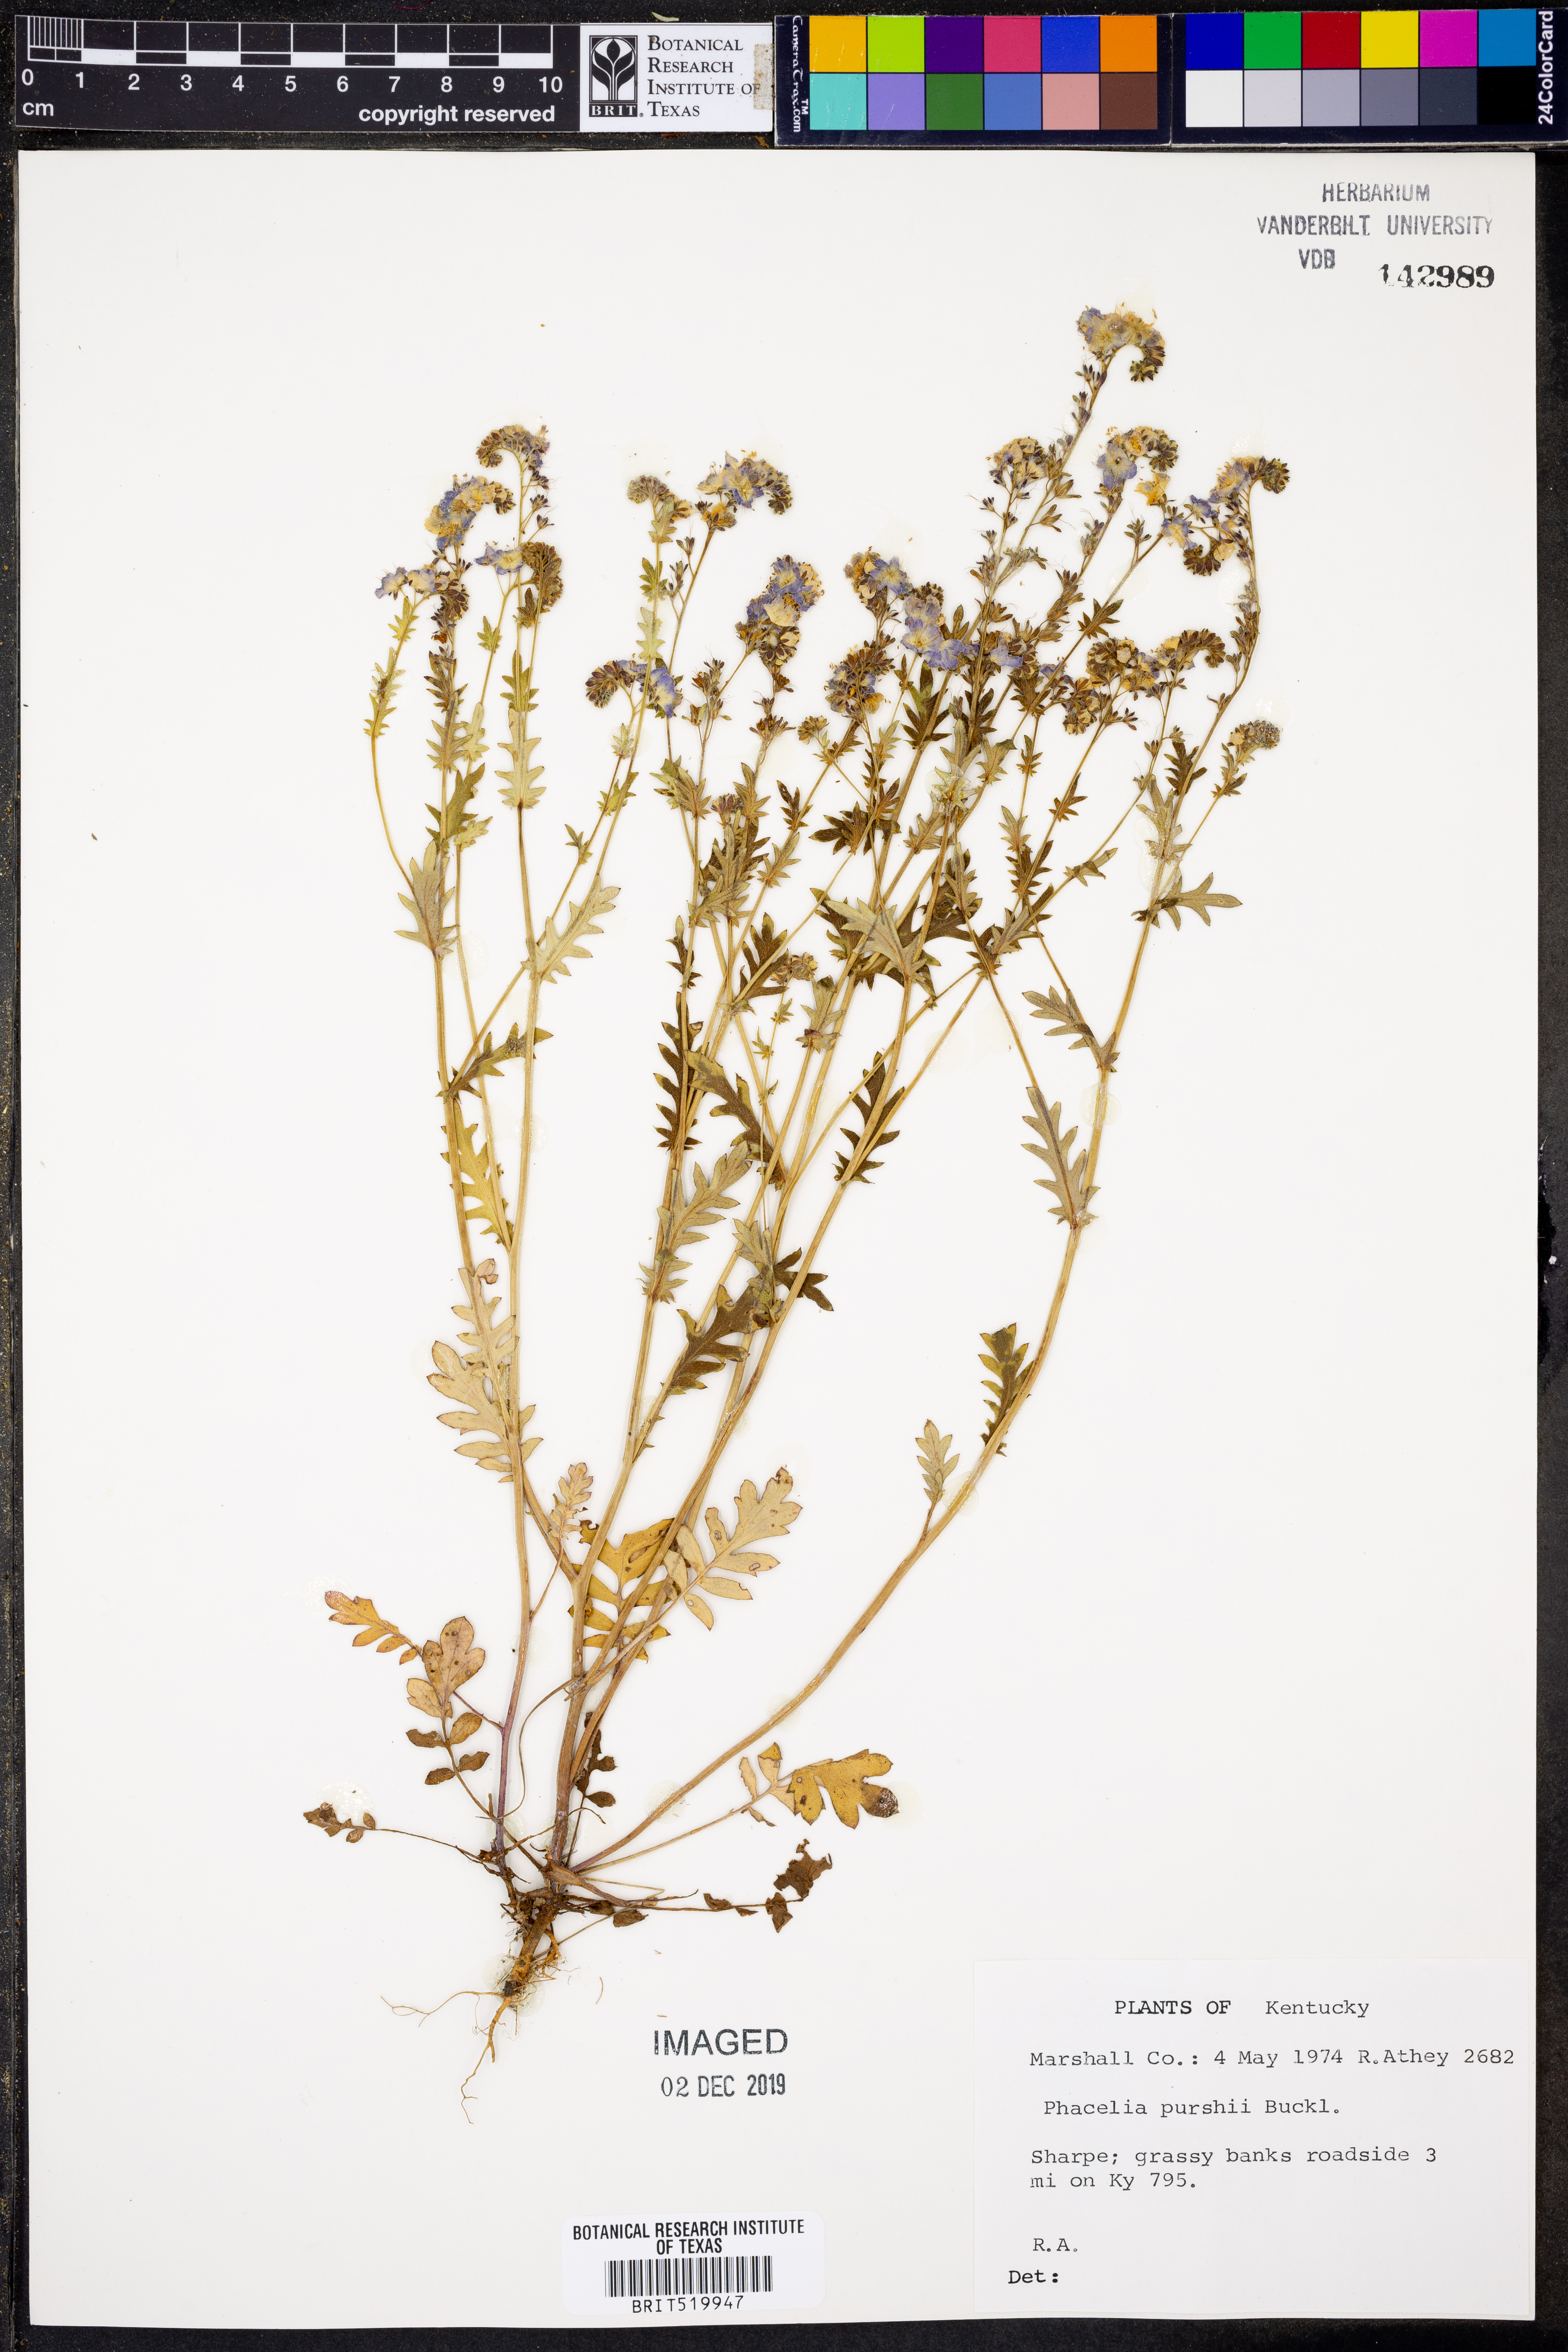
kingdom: Plantae
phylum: Tracheophyta
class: Magnoliopsida
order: Boraginales
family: Hydrophyllaceae
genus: Phacelia
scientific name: Phacelia purshii
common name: Miami-mist
